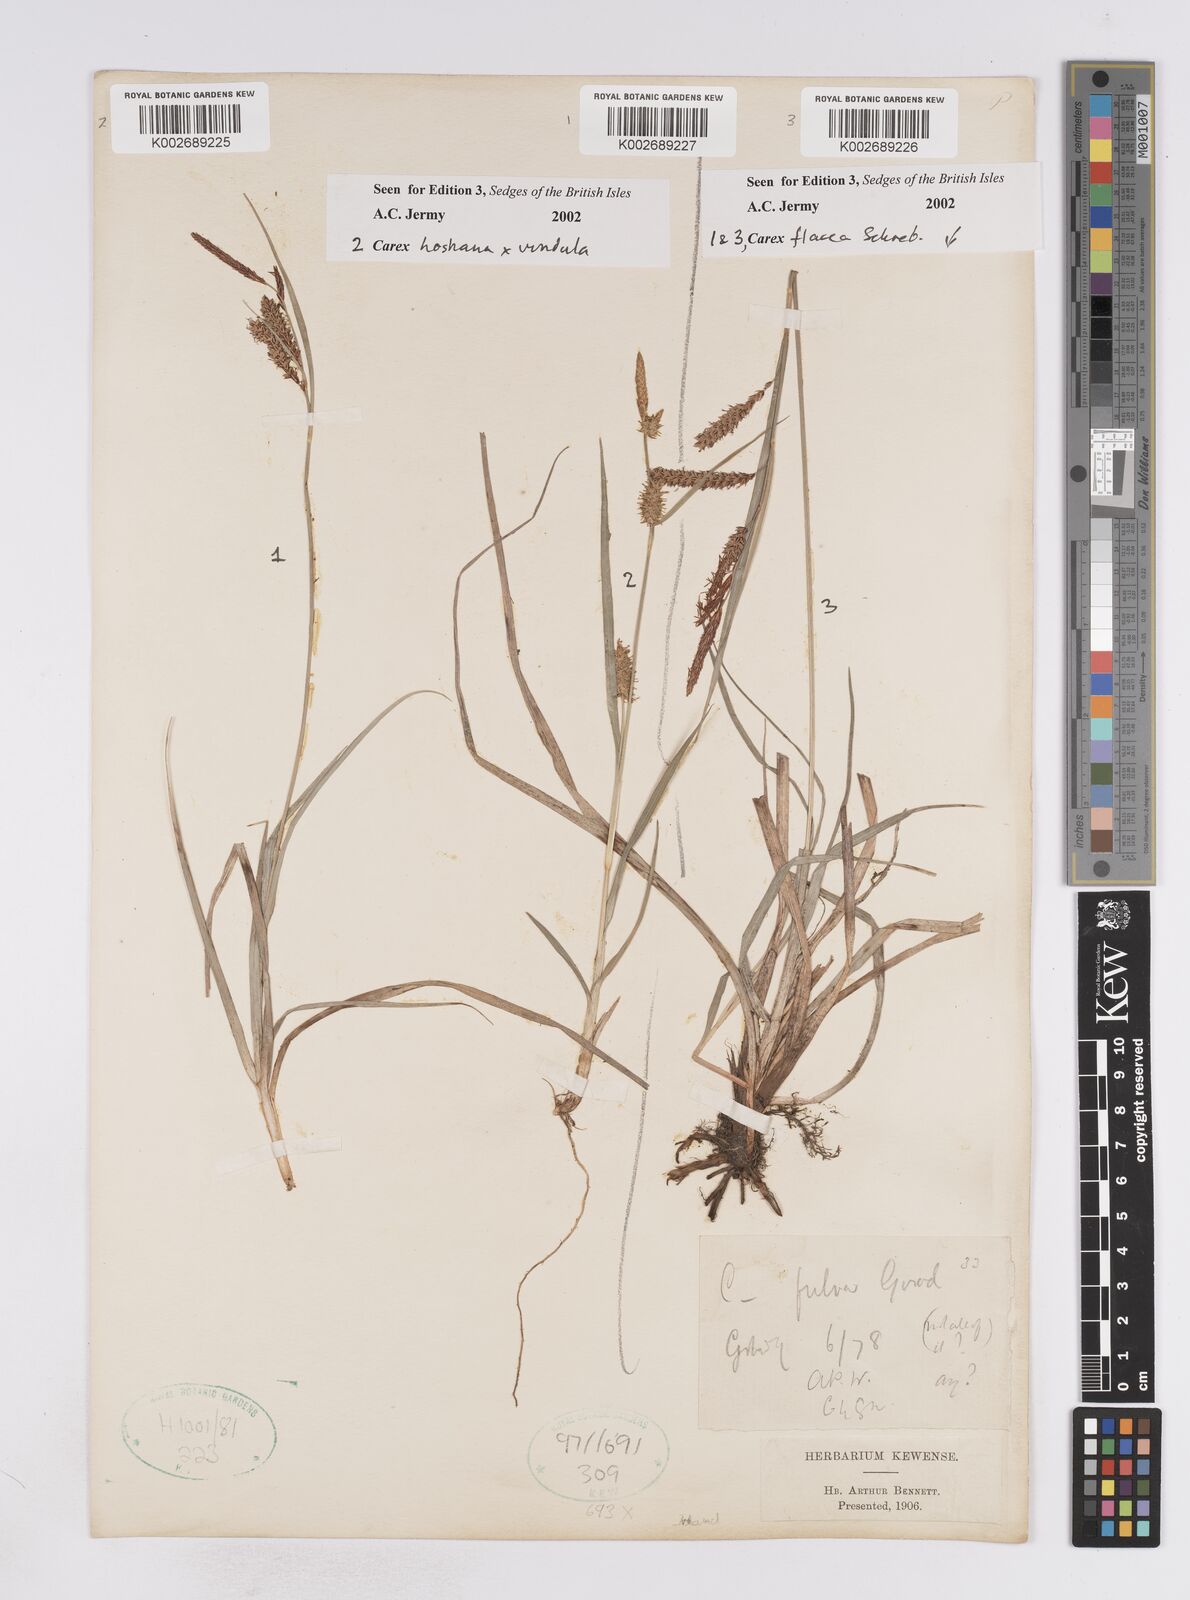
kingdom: Plantae
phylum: Tracheophyta
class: Liliopsida
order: Poales
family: Cyperaceae
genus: Carex
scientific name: Carex flacca
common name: Glaucous sedge
